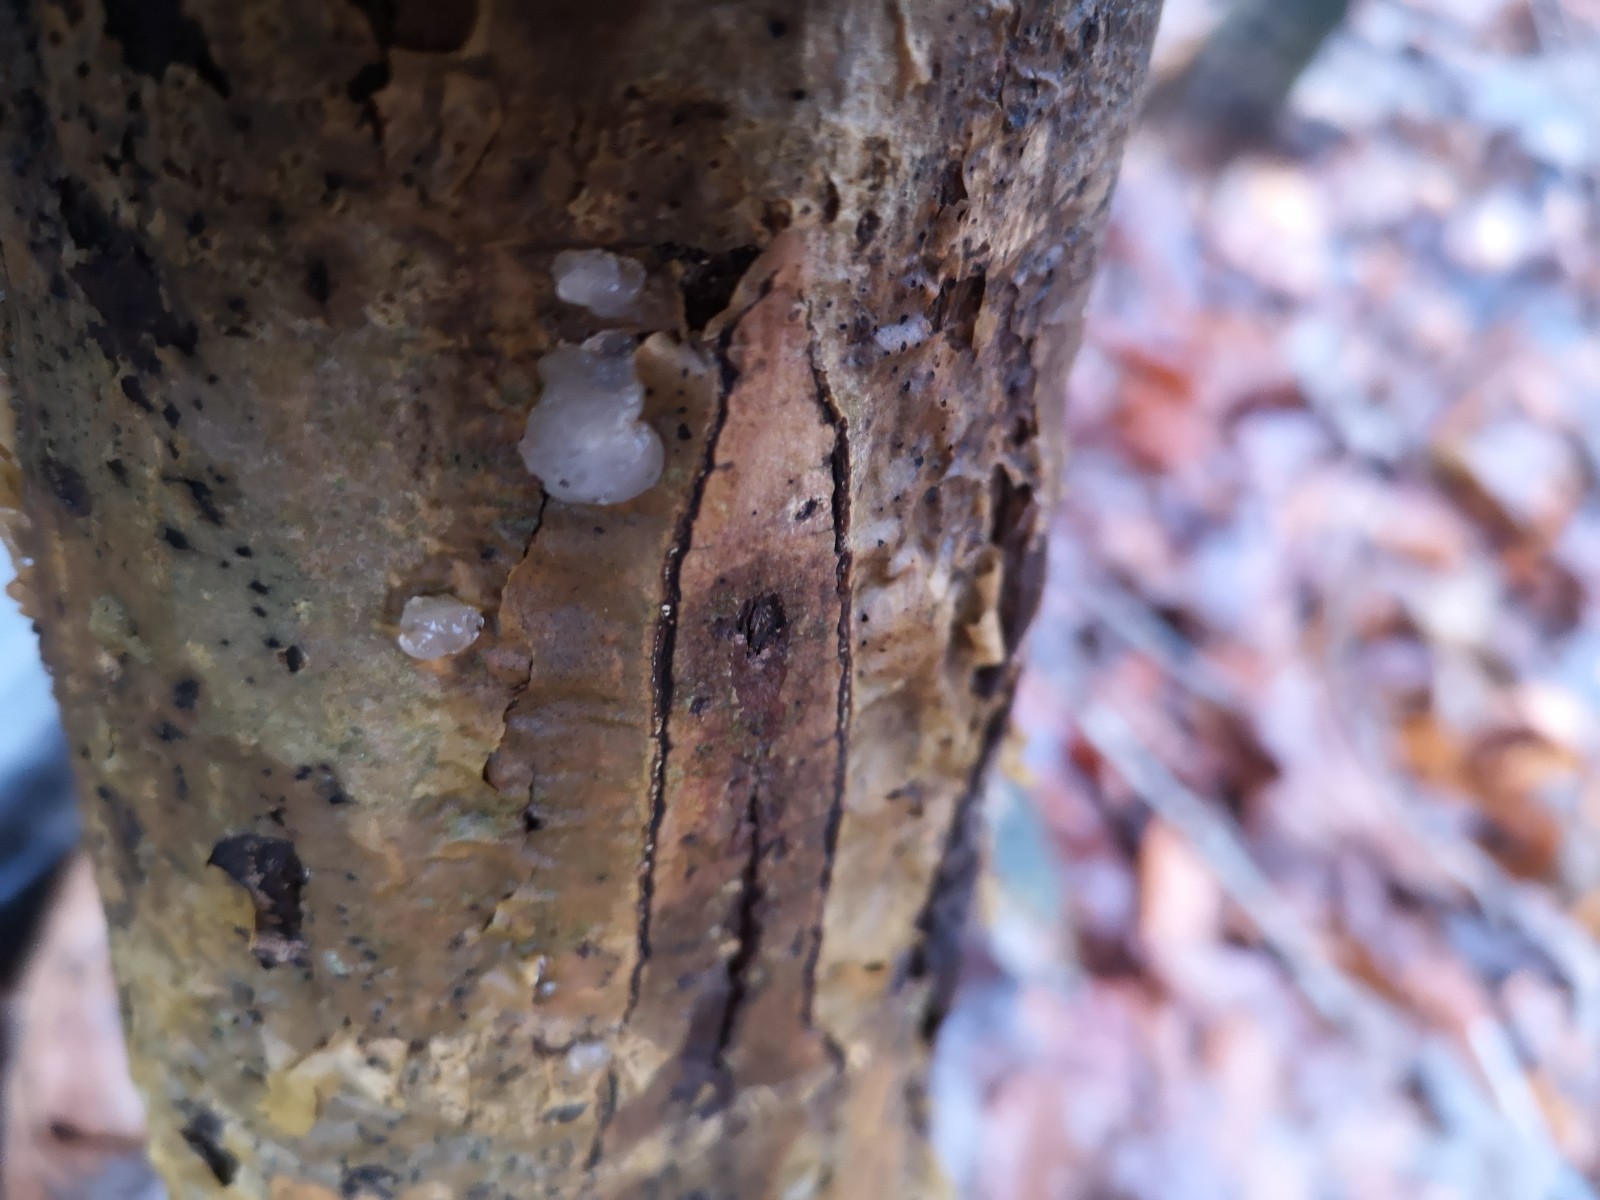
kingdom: Fungi
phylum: Basidiomycota
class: Agaricomycetes
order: Auriculariales
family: Hyaloriaceae
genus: Myxarium
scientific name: Myxarium nucleatum
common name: klar bævretop
